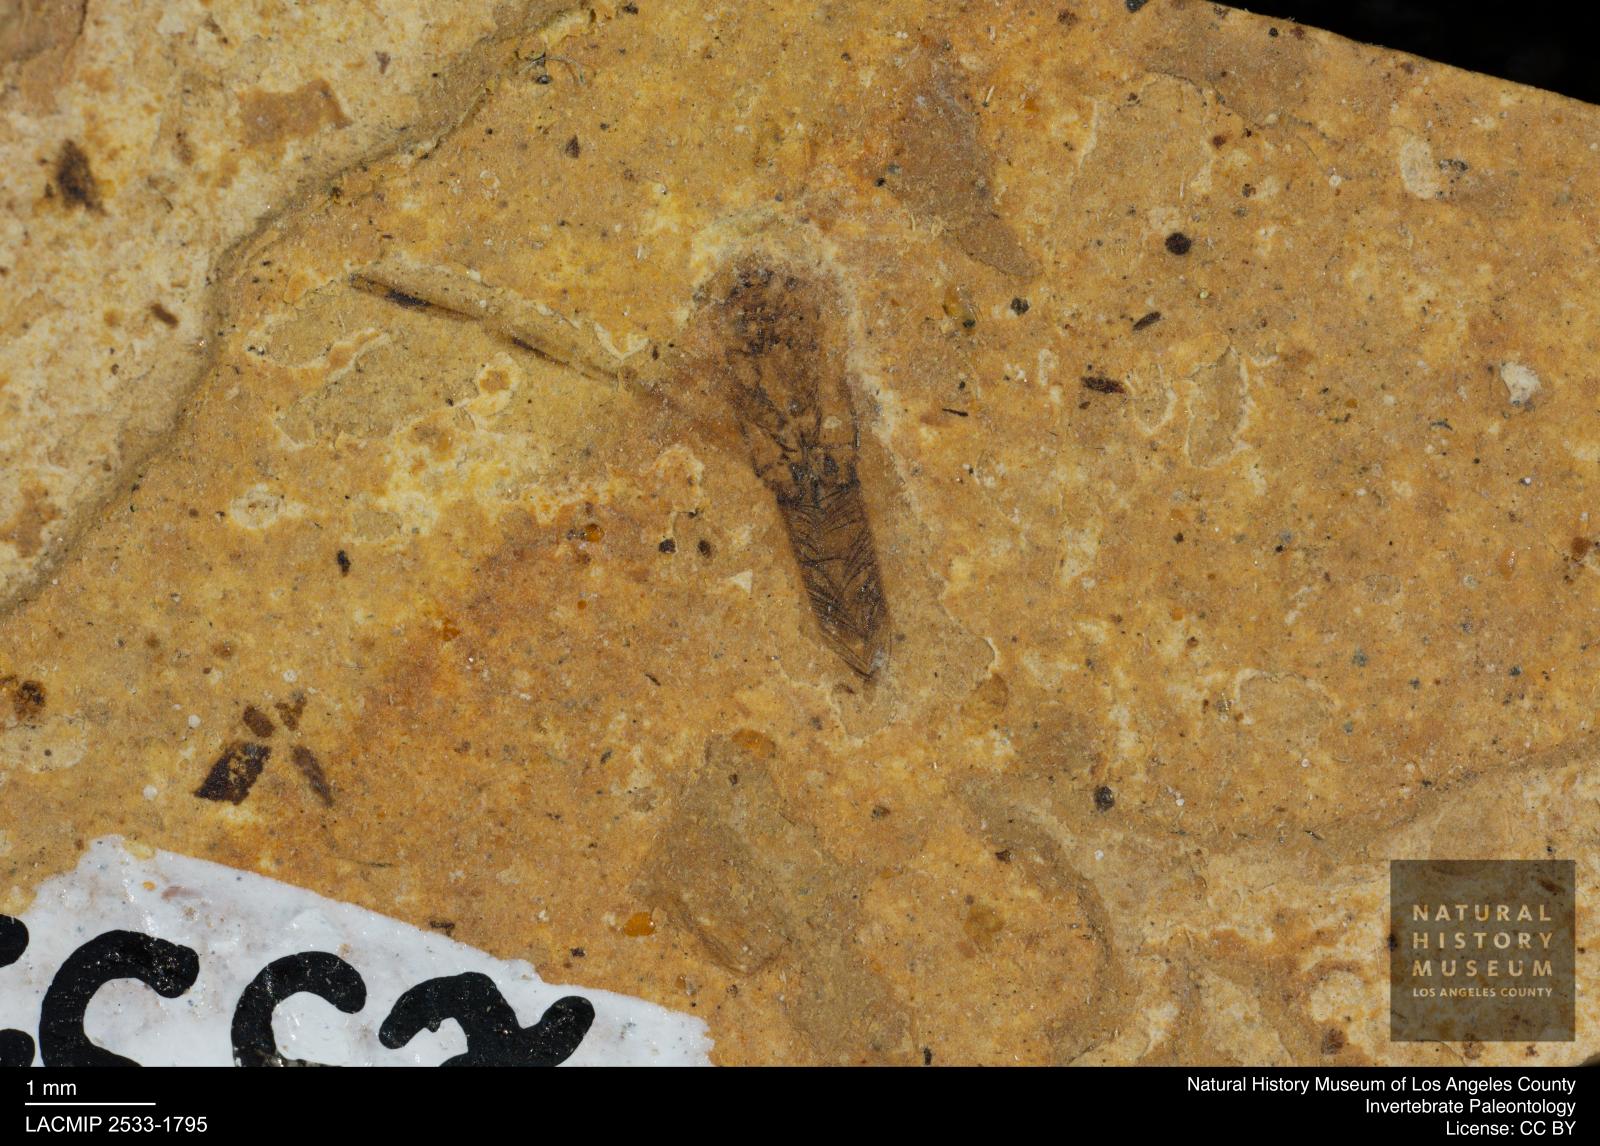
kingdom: Animalia
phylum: Arthropoda
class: Insecta
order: Hemiptera
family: Notonectidae
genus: Notonecta
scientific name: Notonecta
